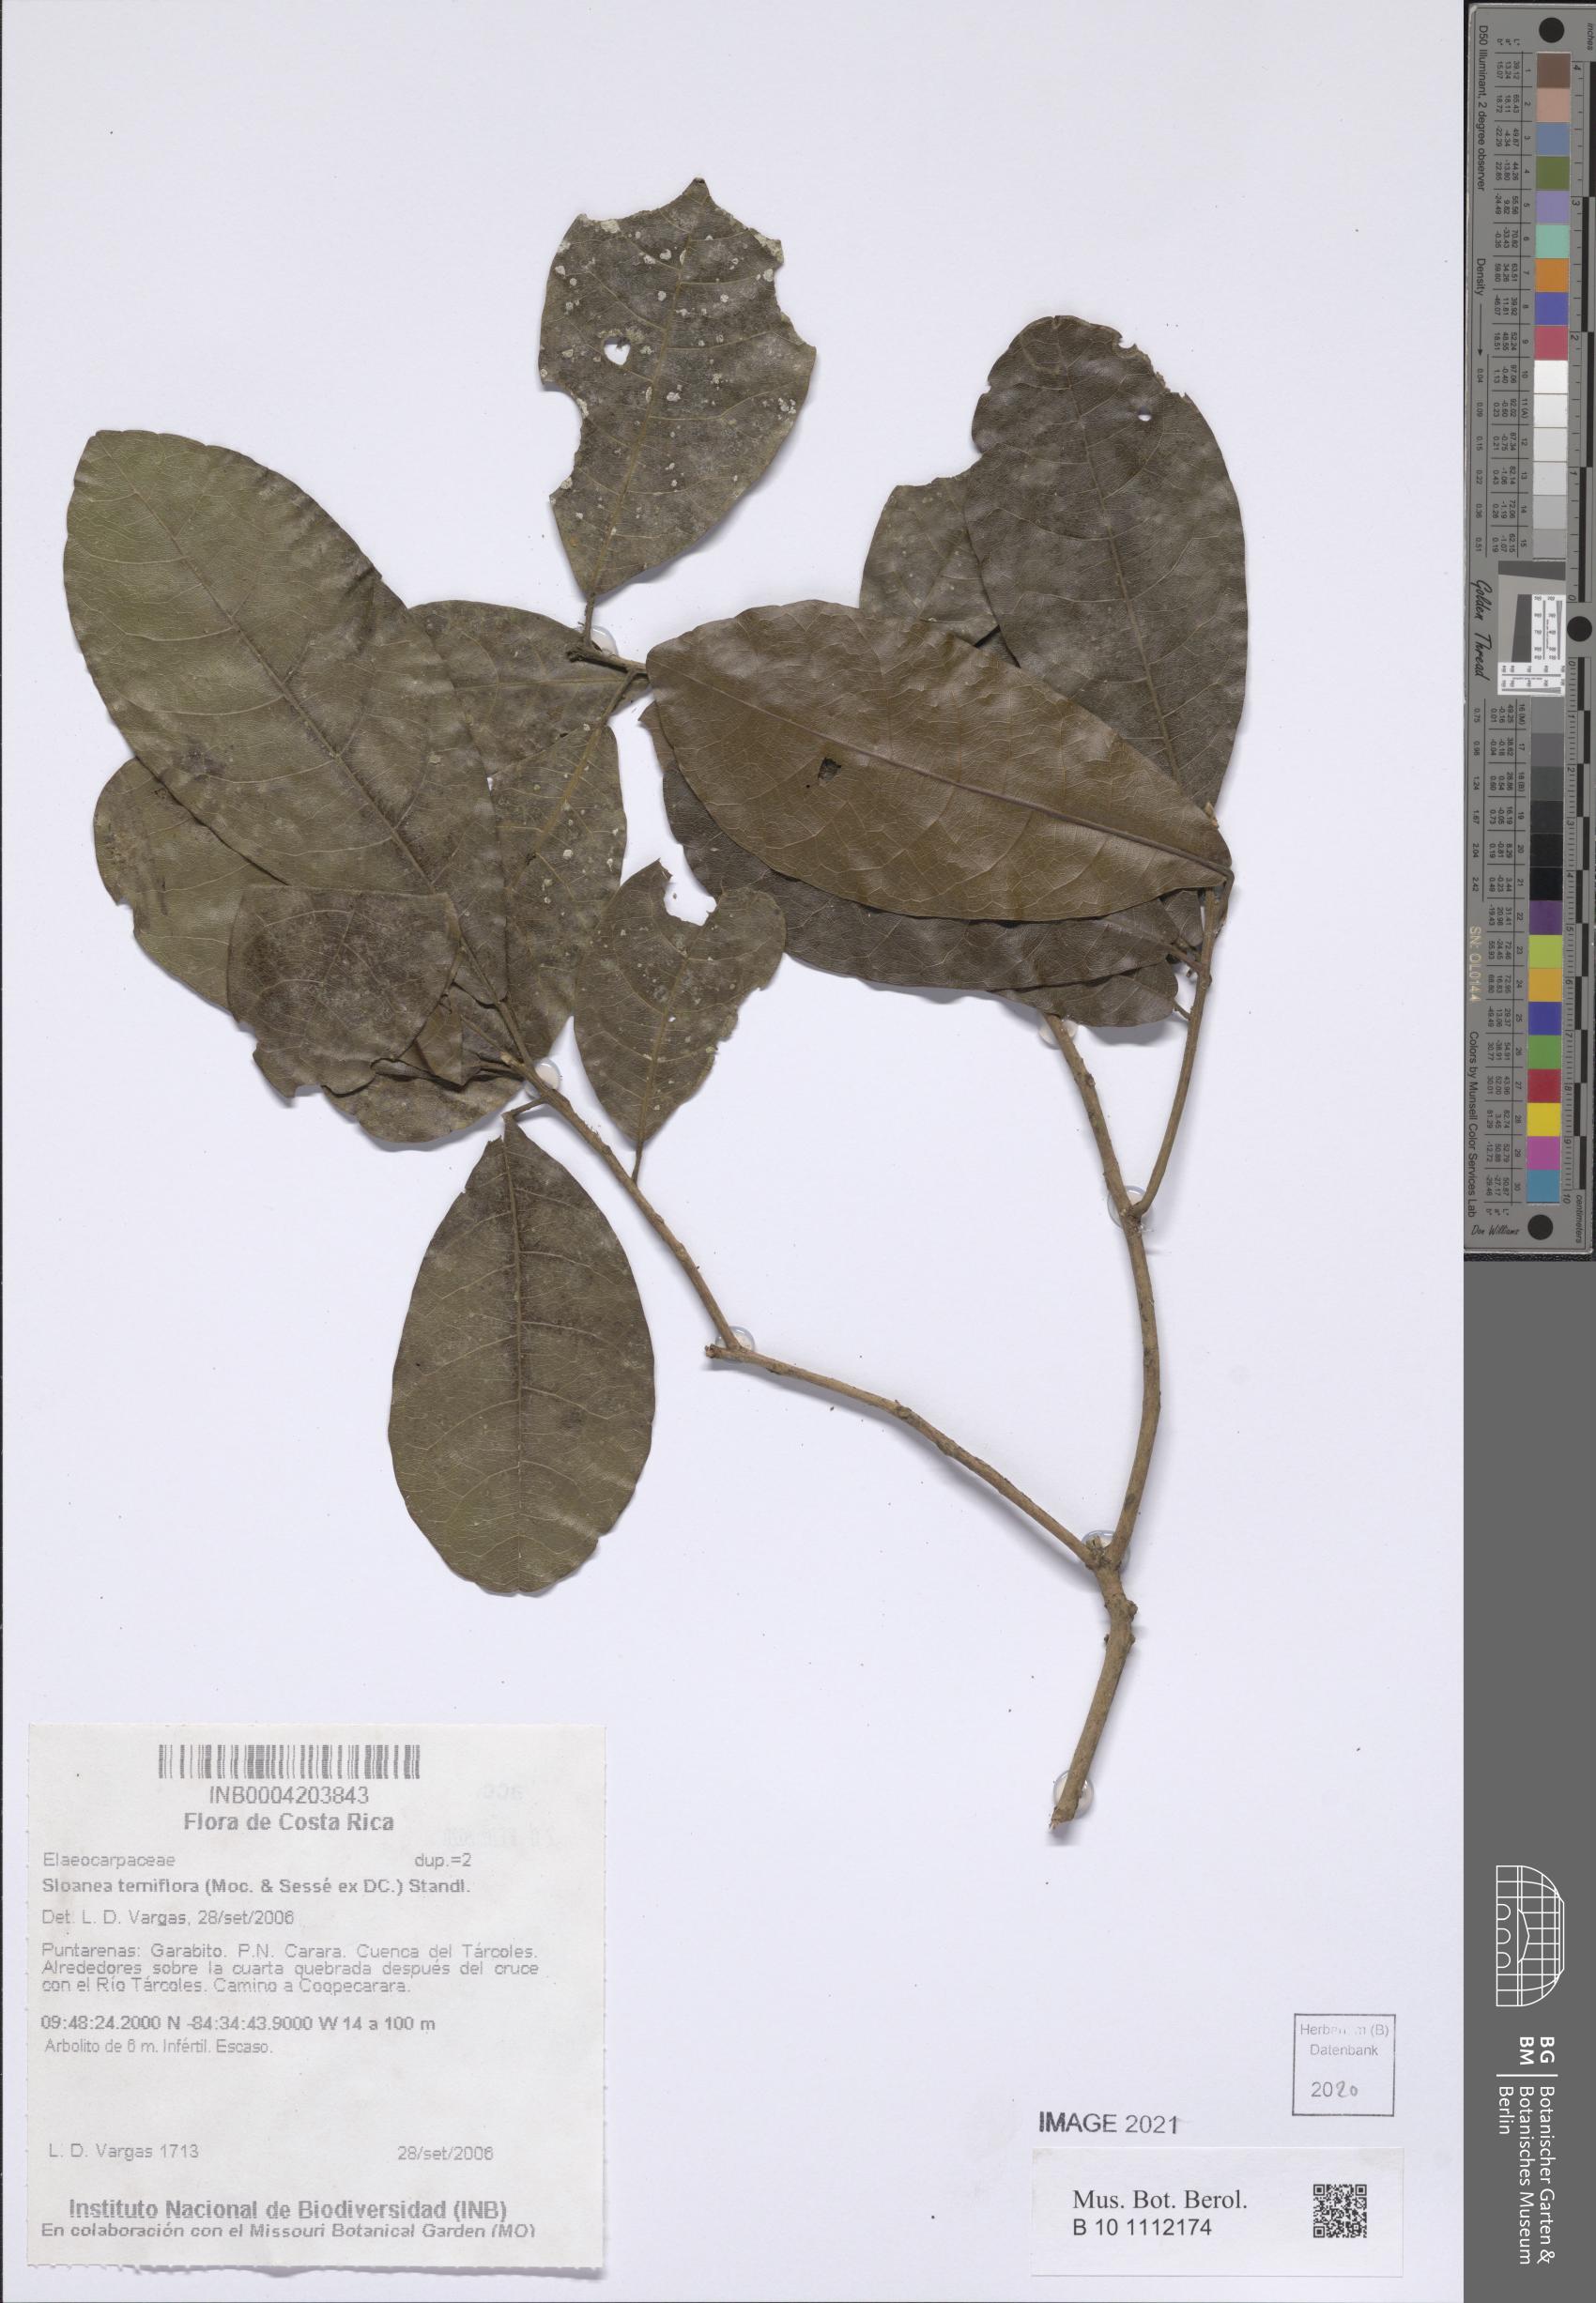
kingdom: Plantae
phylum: Tracheophyta
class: Magnoliopsida
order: Oxalidales
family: Elaeocarpaceae
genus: Sloanea
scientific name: Sloanea terniflora
